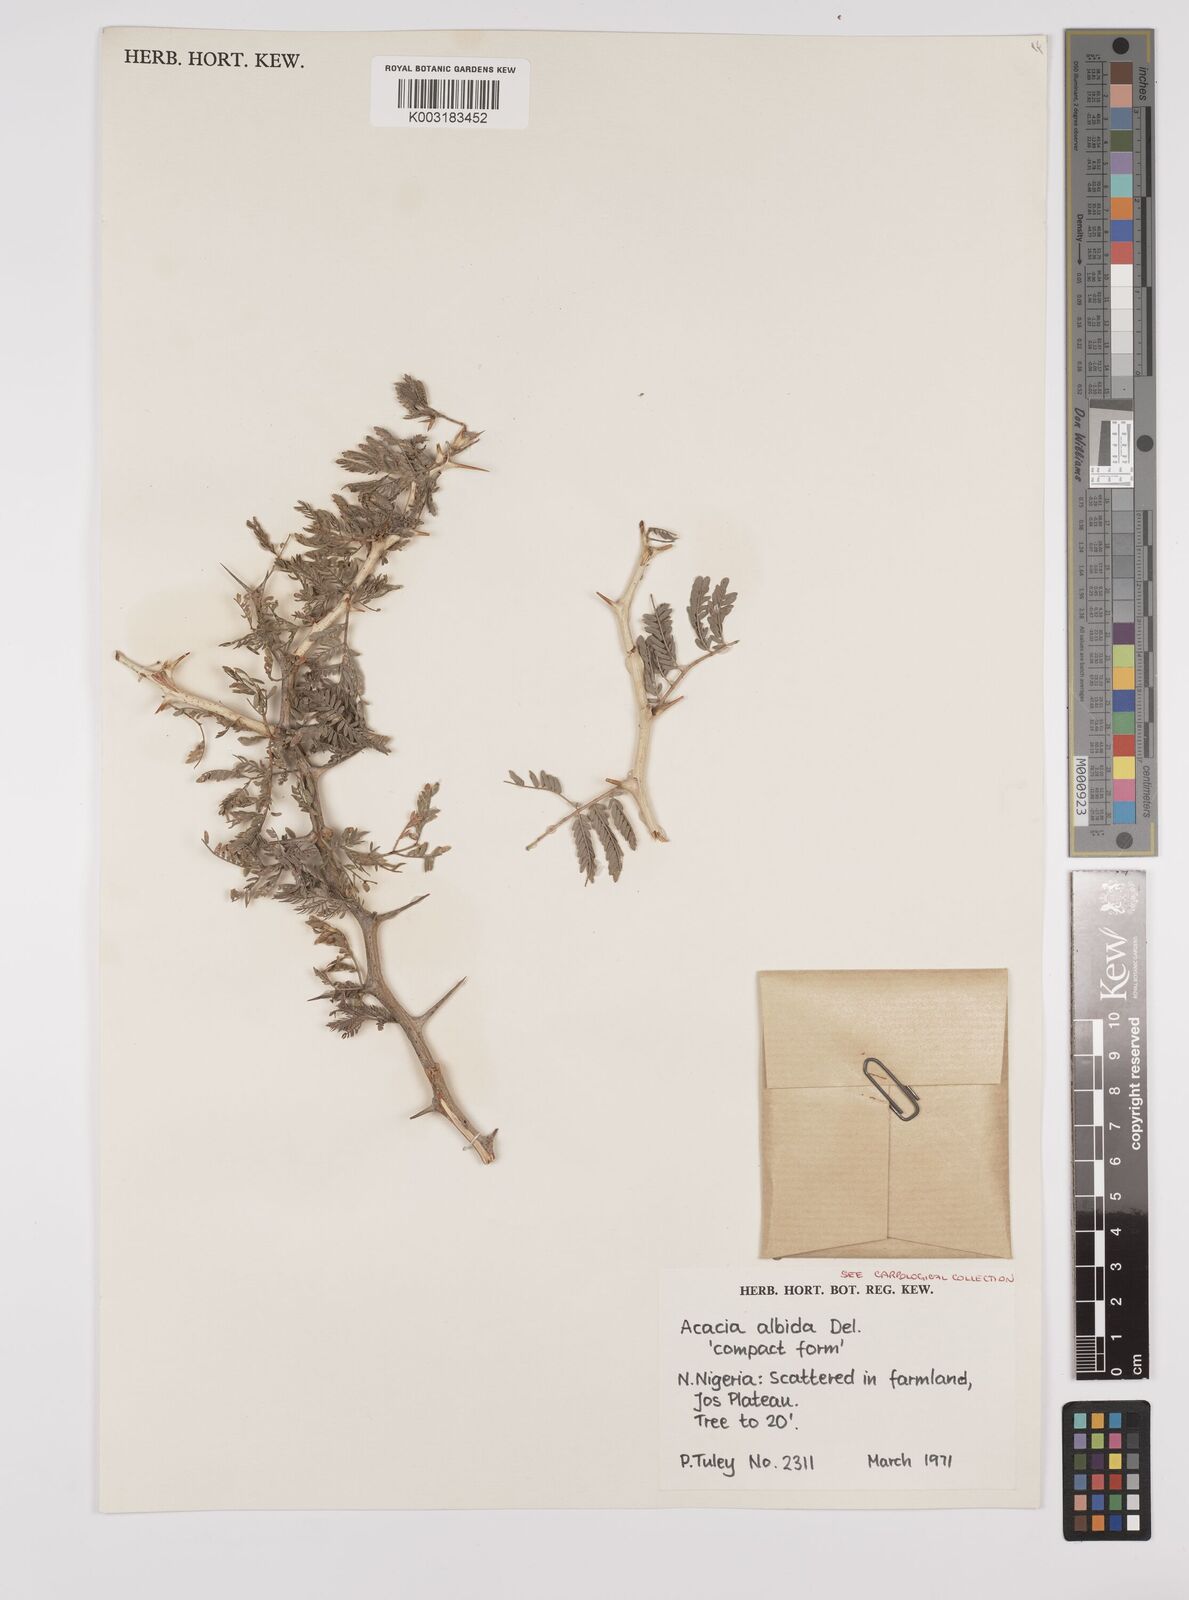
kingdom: Plantae
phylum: Tracheophyta
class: Magnoliopsida
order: Fabales
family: Fabaceae
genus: Faidherbia
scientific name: Faidherbia albida
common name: Anatree
